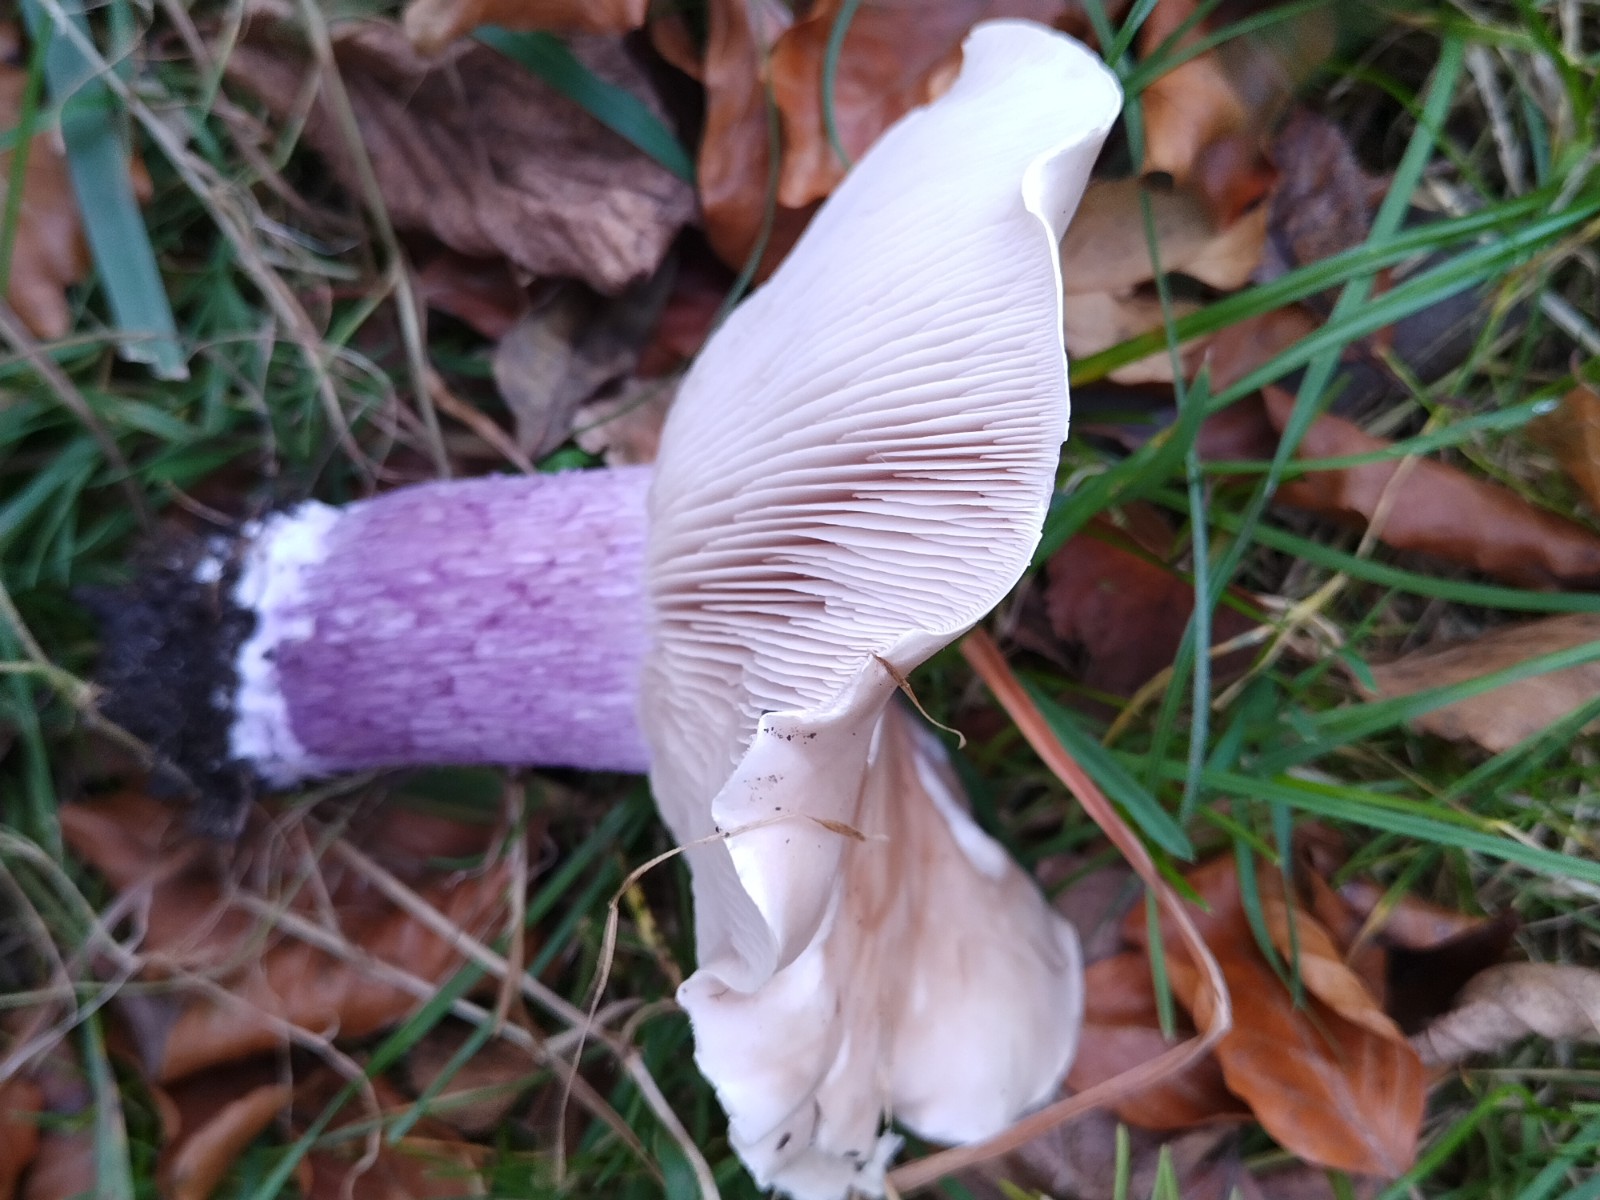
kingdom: Fungi
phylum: Basidiomycota
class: Agaricomycetes
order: Agaricales
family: Tricholomataceae
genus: Lepista
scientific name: Lepista personata
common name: bleg hekseringshat
